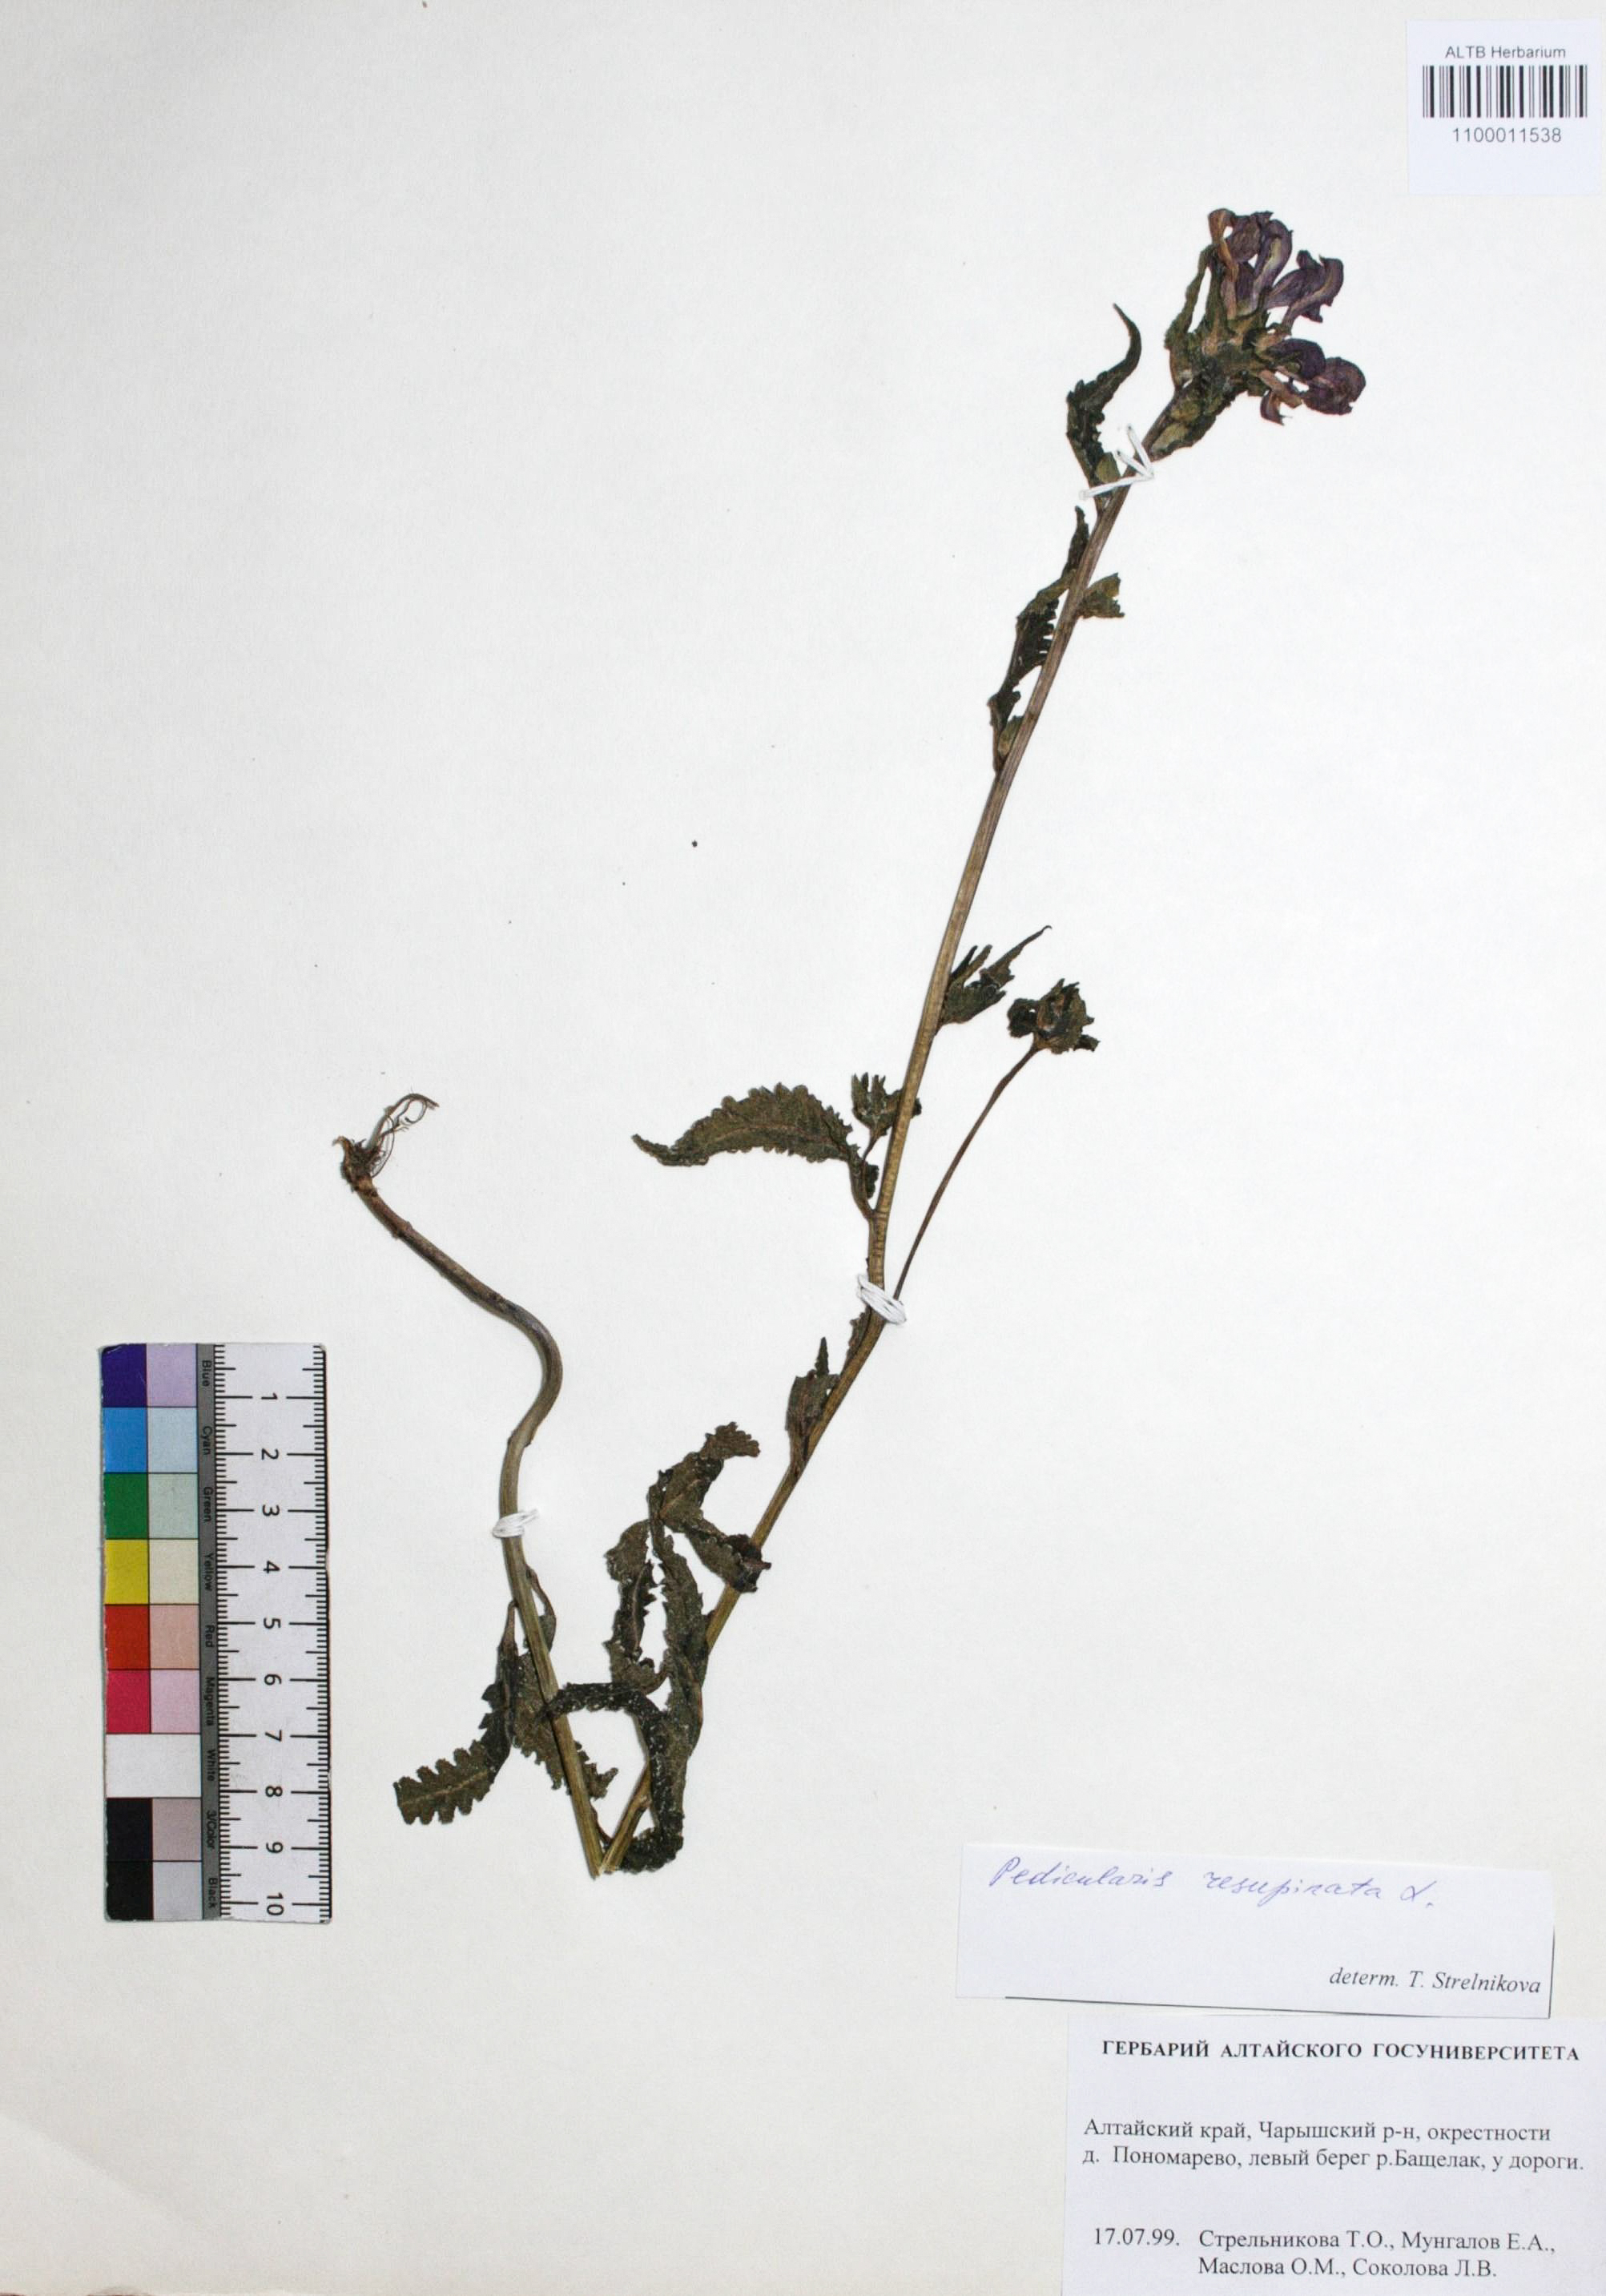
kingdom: Plantae
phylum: Tracheophyta
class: Magnoliopsida
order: Lamiales
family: Orobanchaceae
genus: Pedicularis
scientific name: Pedicularis resupinata
